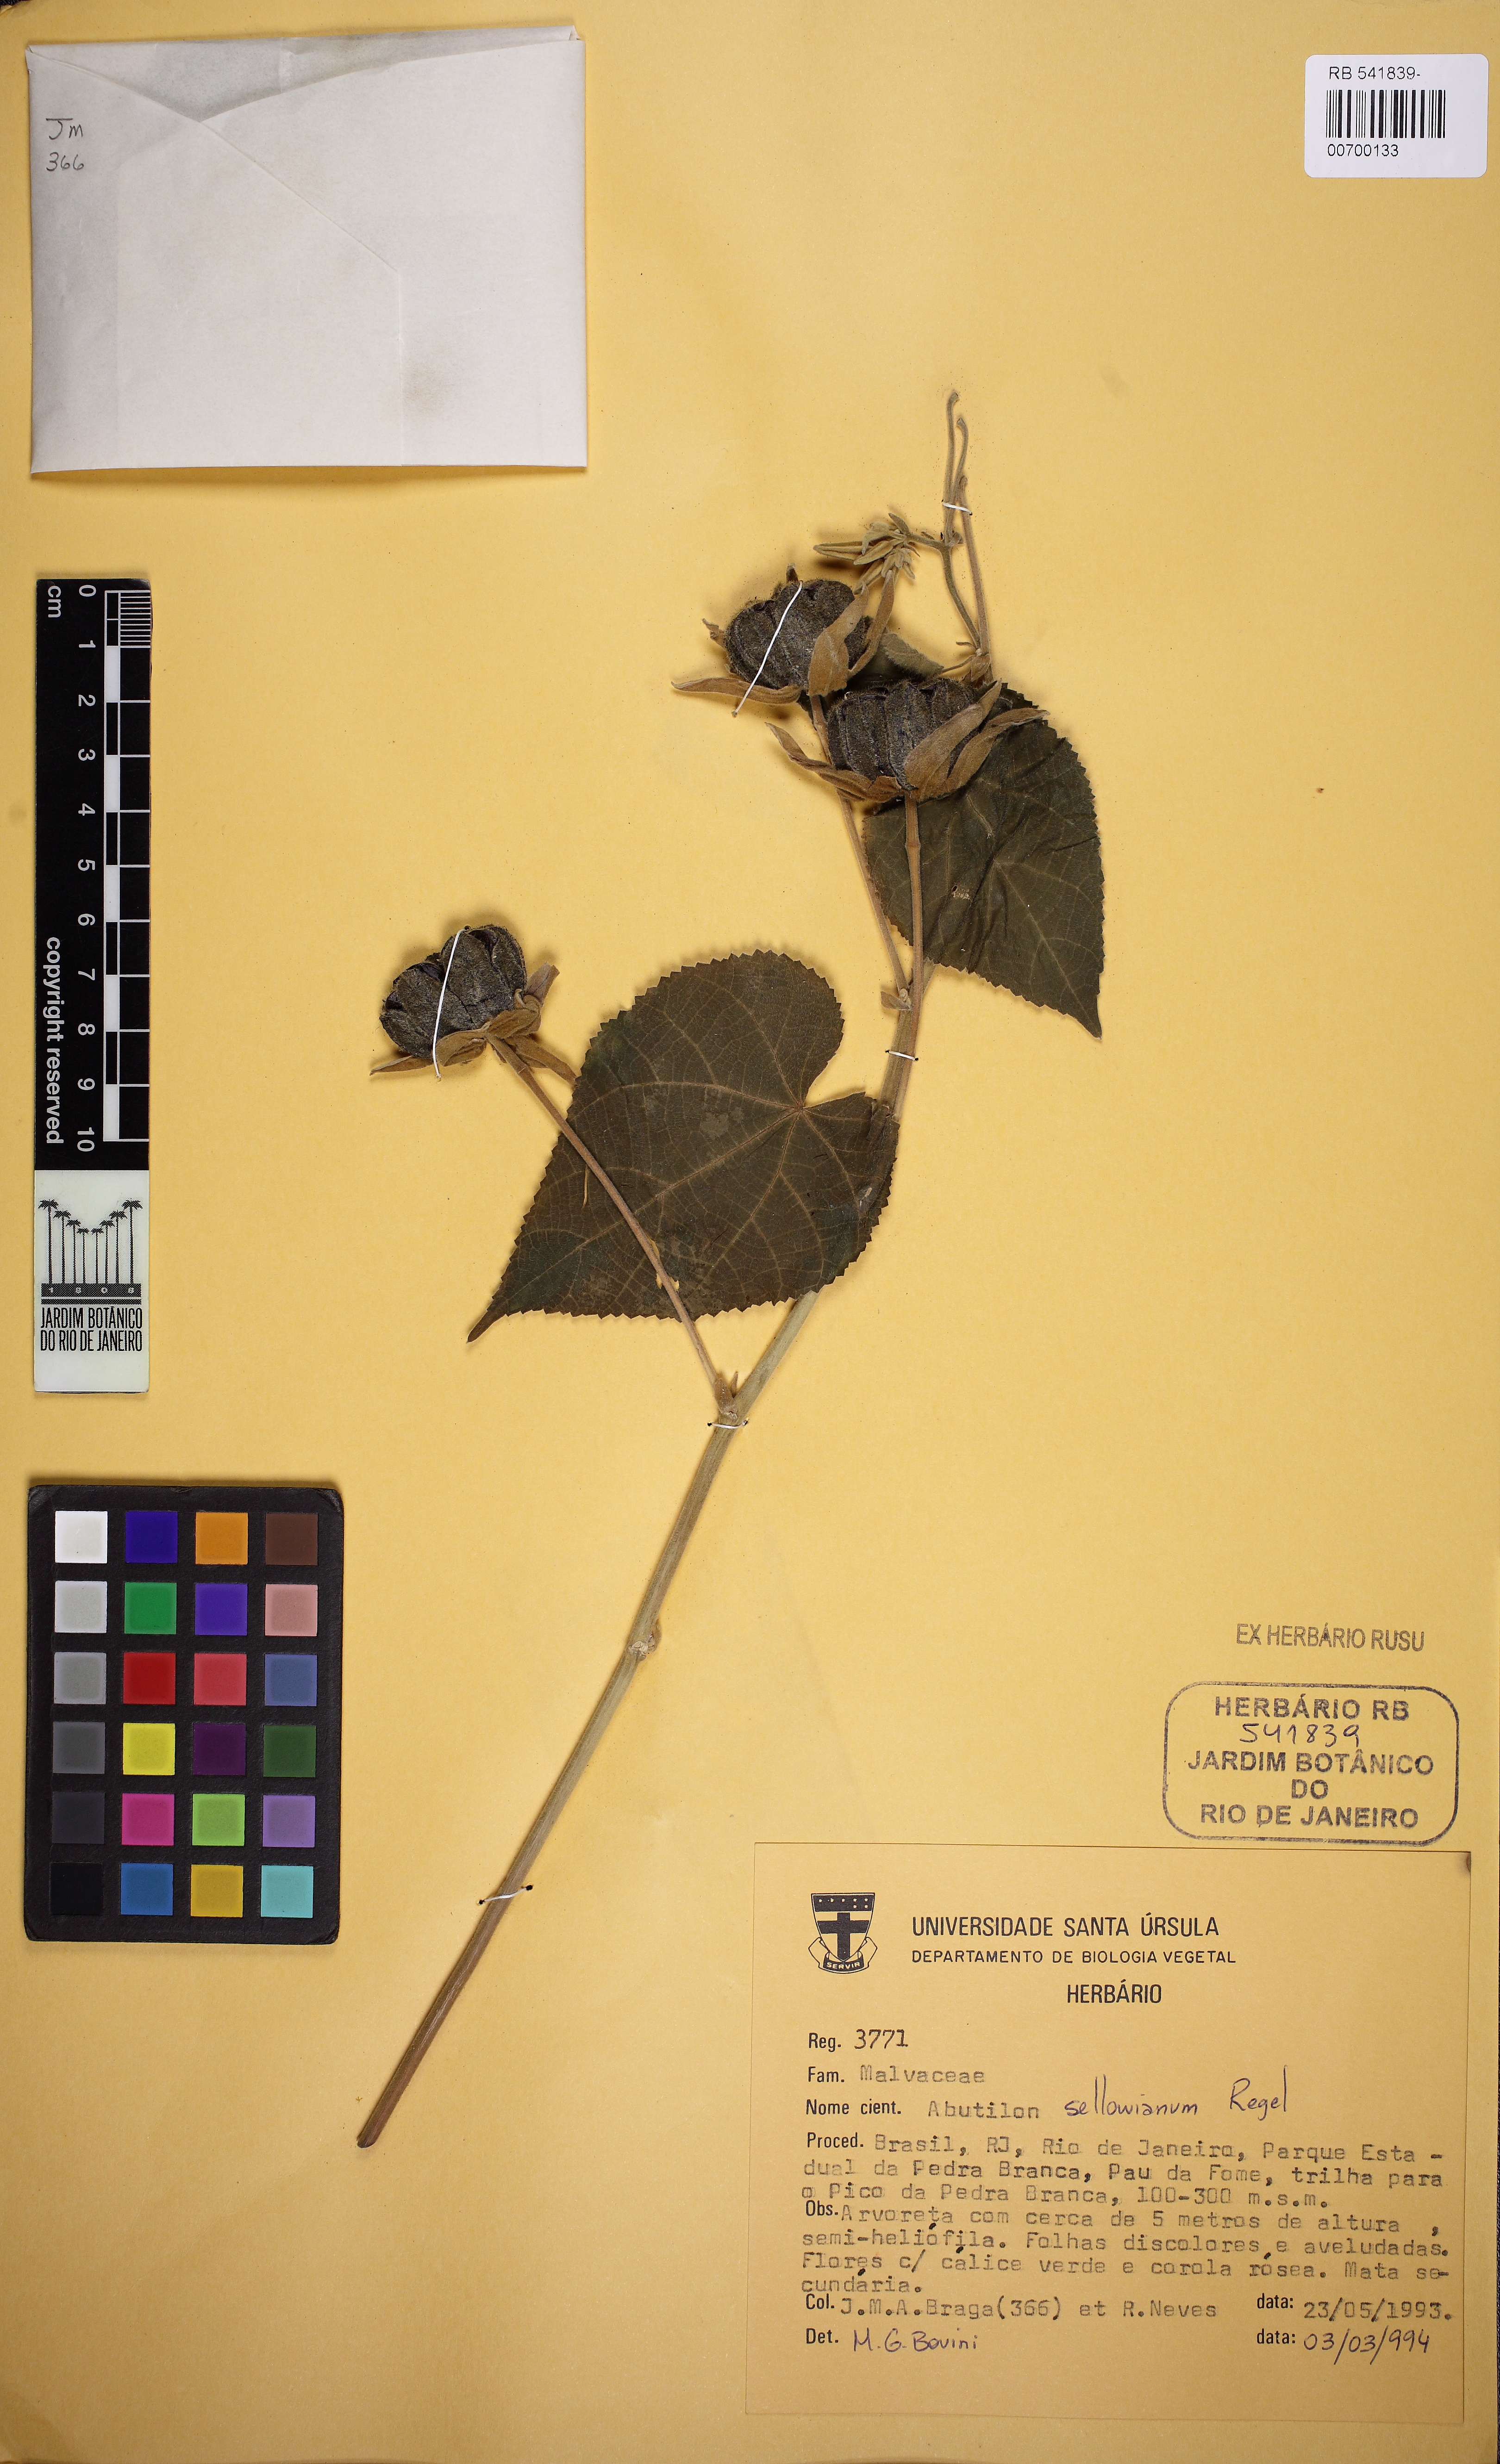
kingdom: Plantae
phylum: Tracheophyta
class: Magnoliopsida
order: Malvales
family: Malvaceae
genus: Callianthe
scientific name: Callianthe sellowiana
